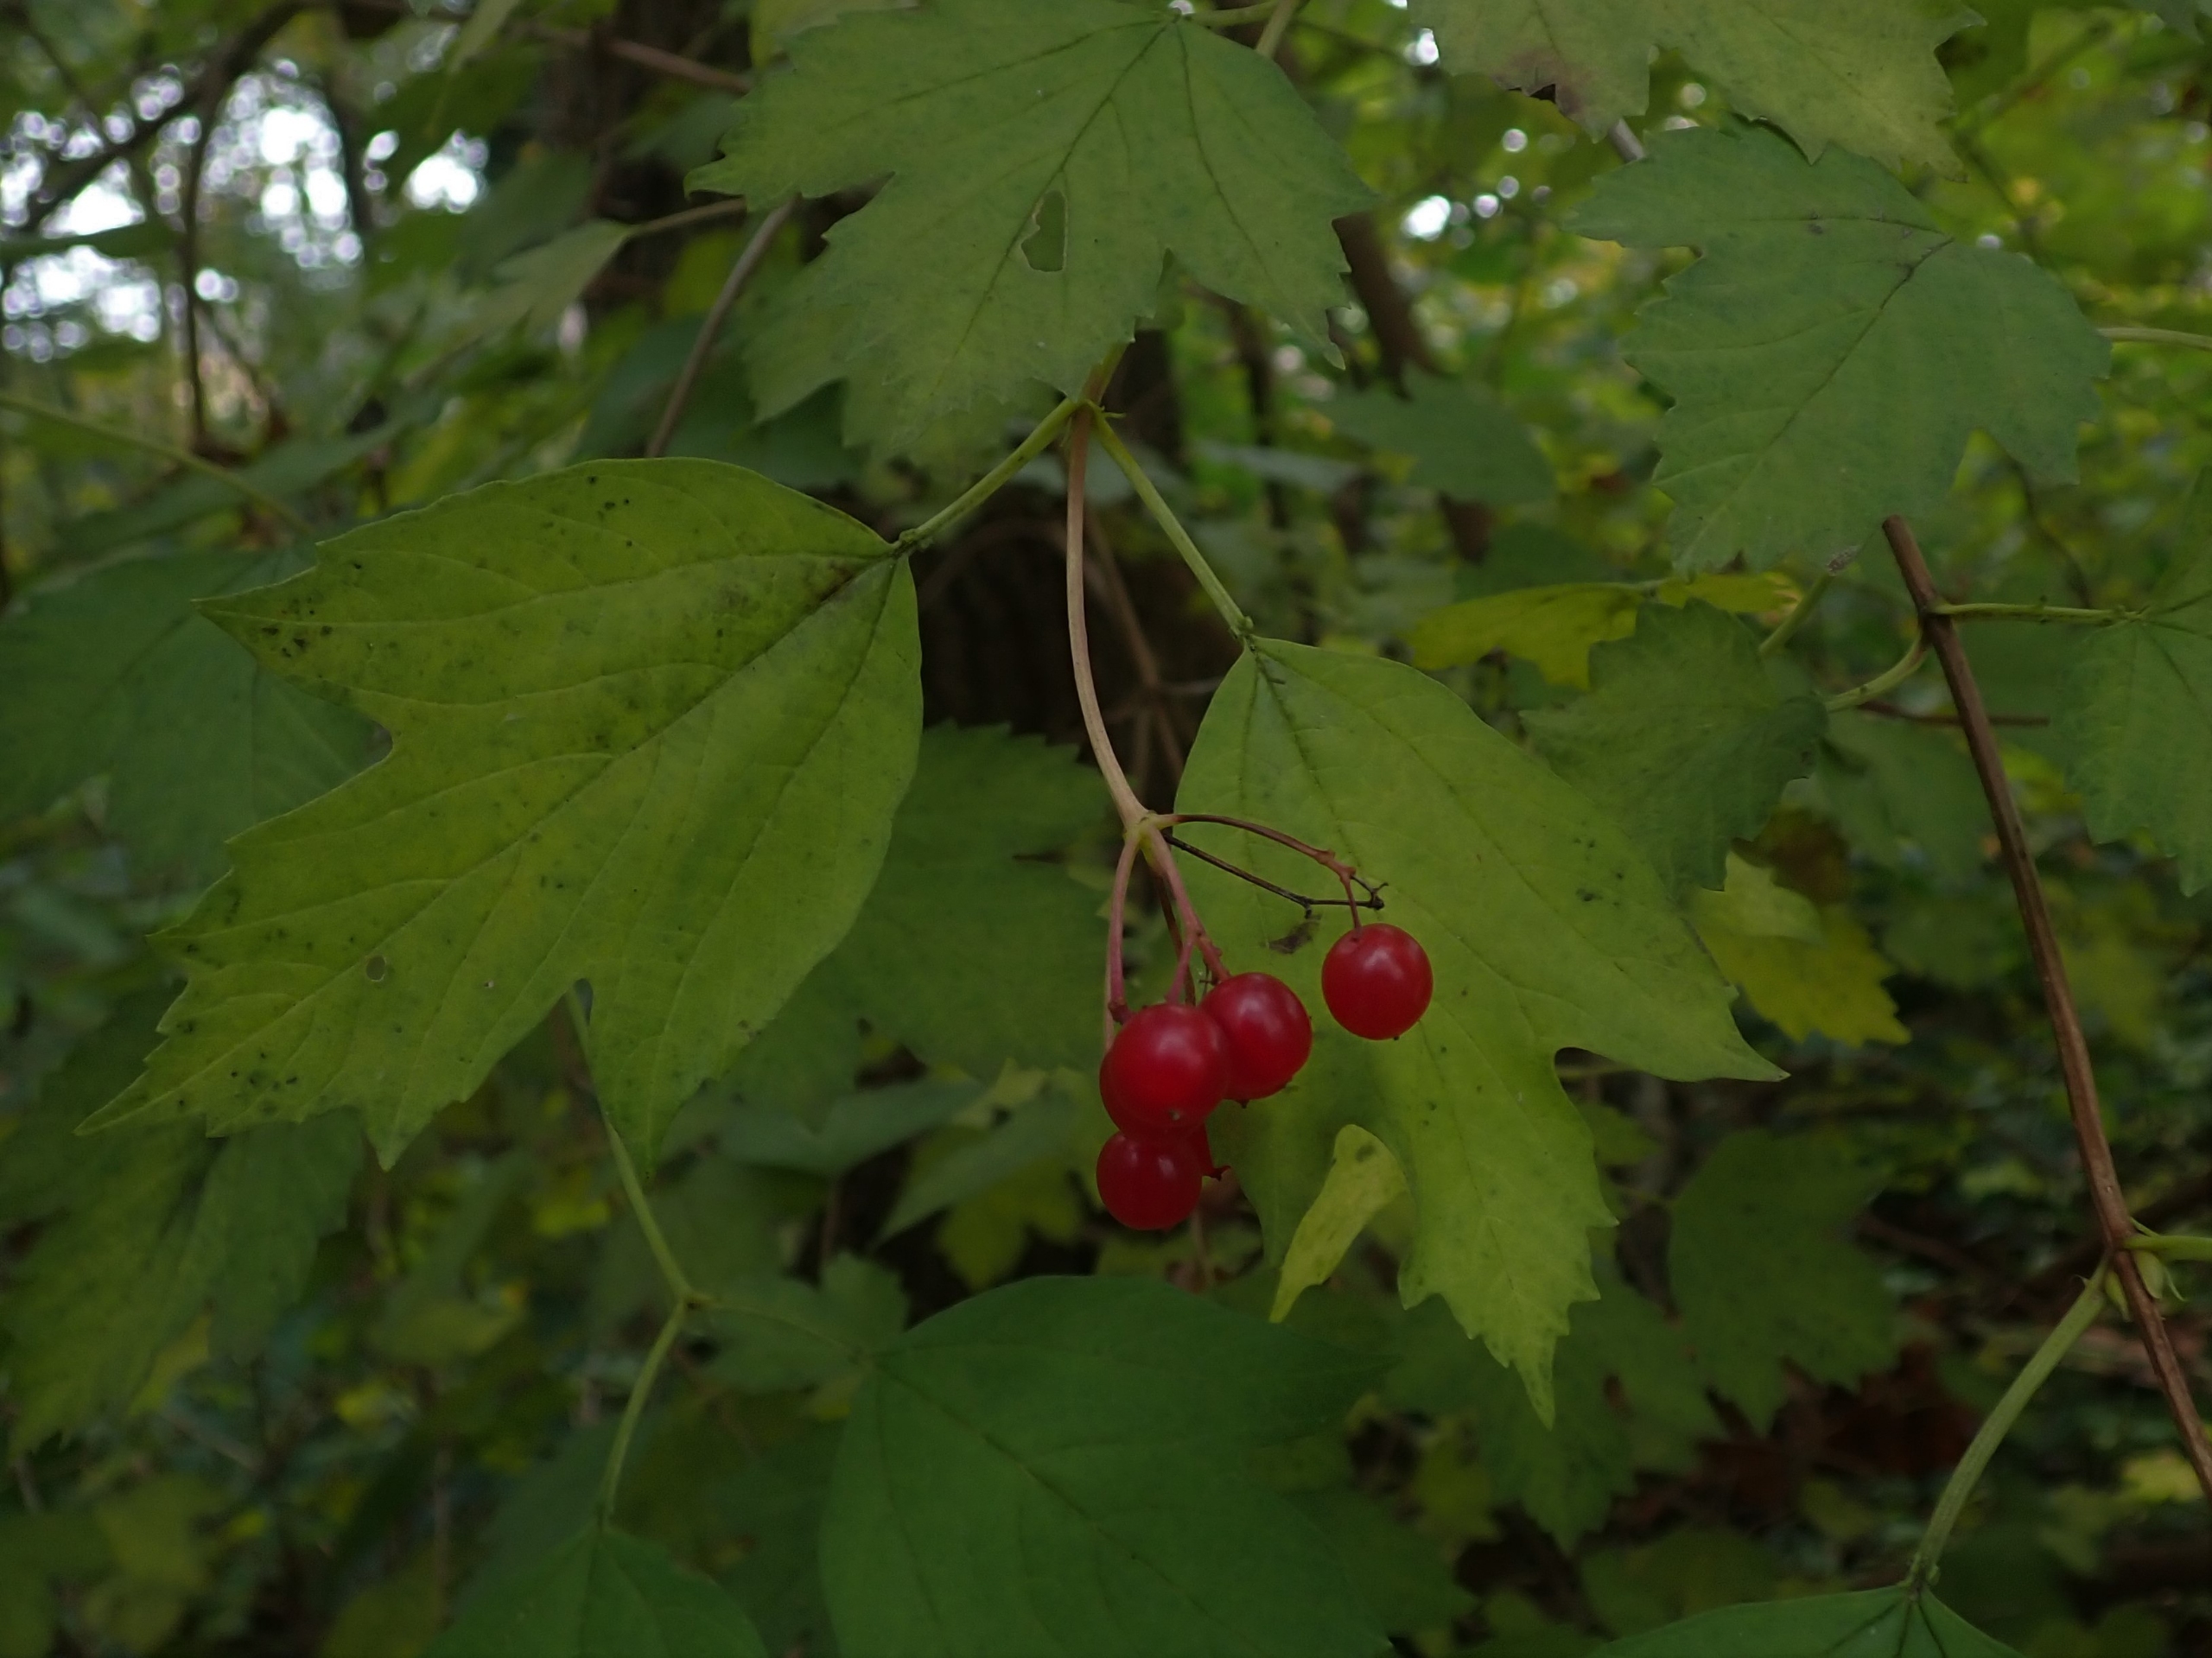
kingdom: Plantae
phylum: Tracheophyta
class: Magnoliopsida
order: Dipsacales
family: Viburnaceae
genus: Viburnum
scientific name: Viburnum opulus
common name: Kvalkved
